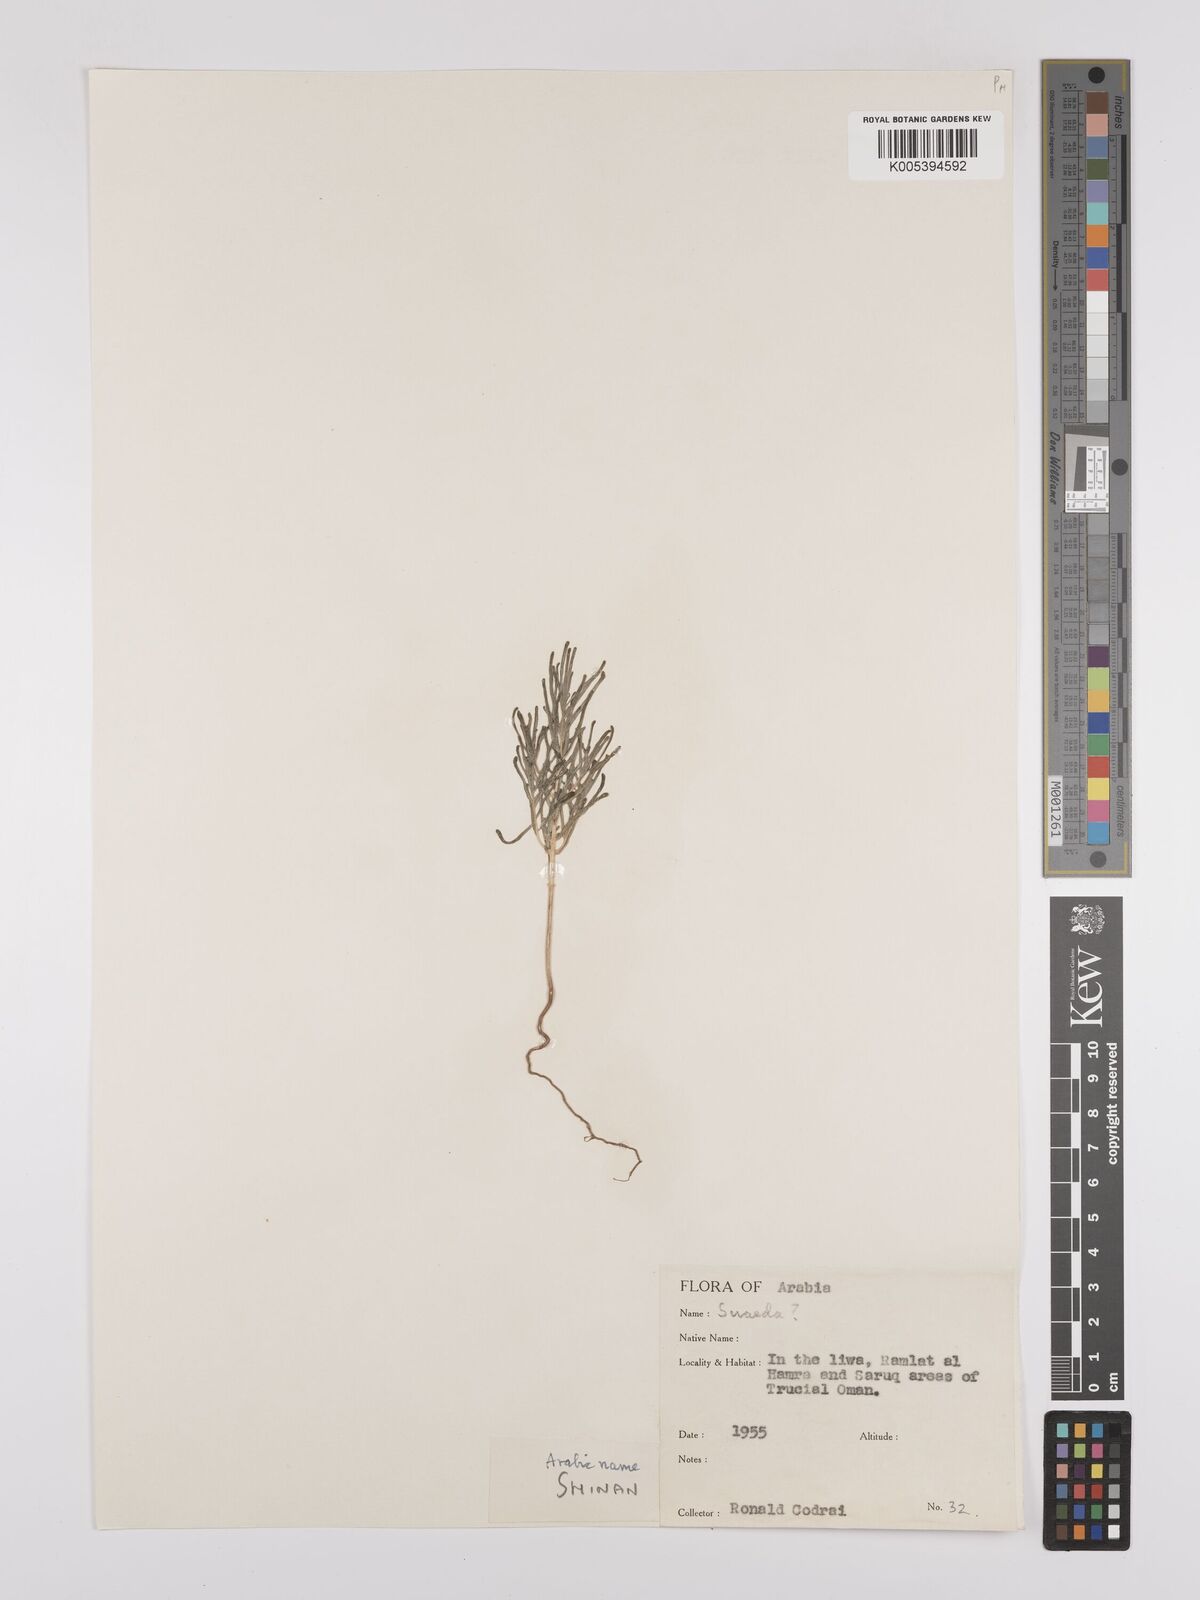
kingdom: Plantae
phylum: Tracheophyta
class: Magnoliopsida
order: Caryophyllales
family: Amaranthaceae
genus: Suaeda
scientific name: Suaeda
